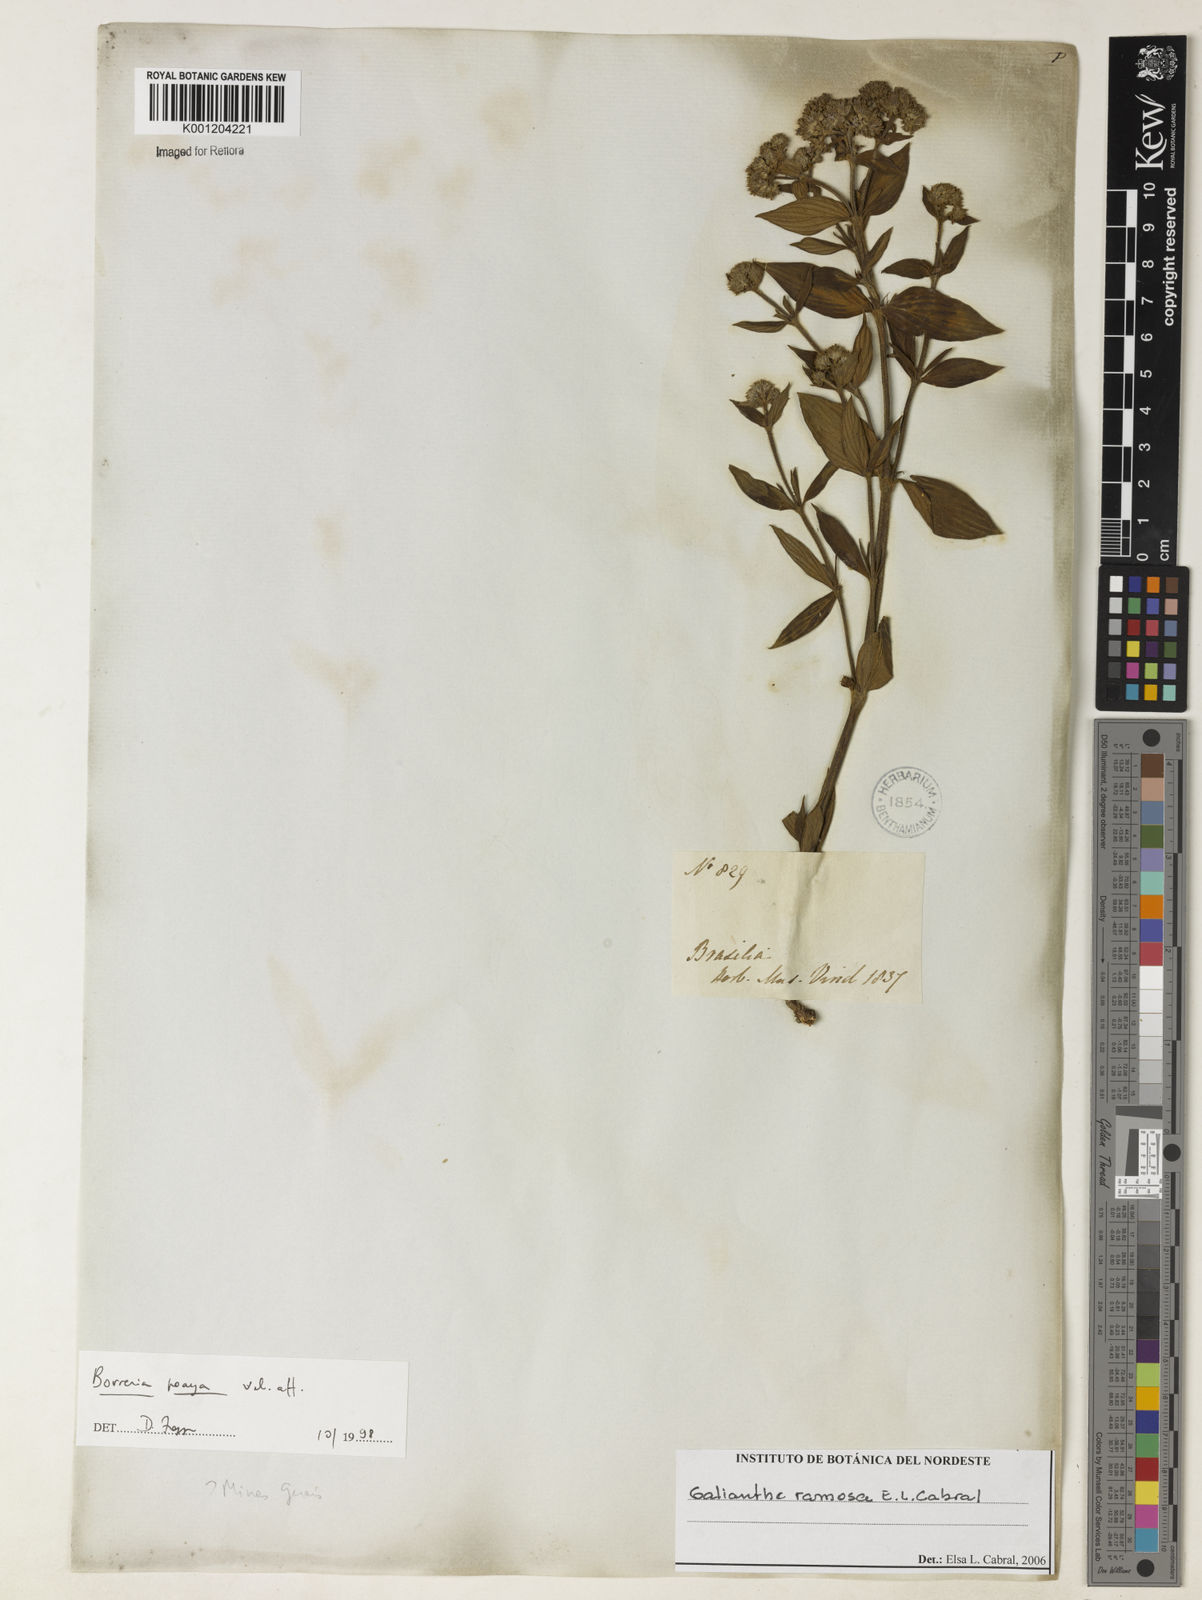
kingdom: Plantae
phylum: Tracheophyta
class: Magnoliopsida
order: Gentianales
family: Rubiaceae
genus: Galianthe
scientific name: Galianthe ramosa
